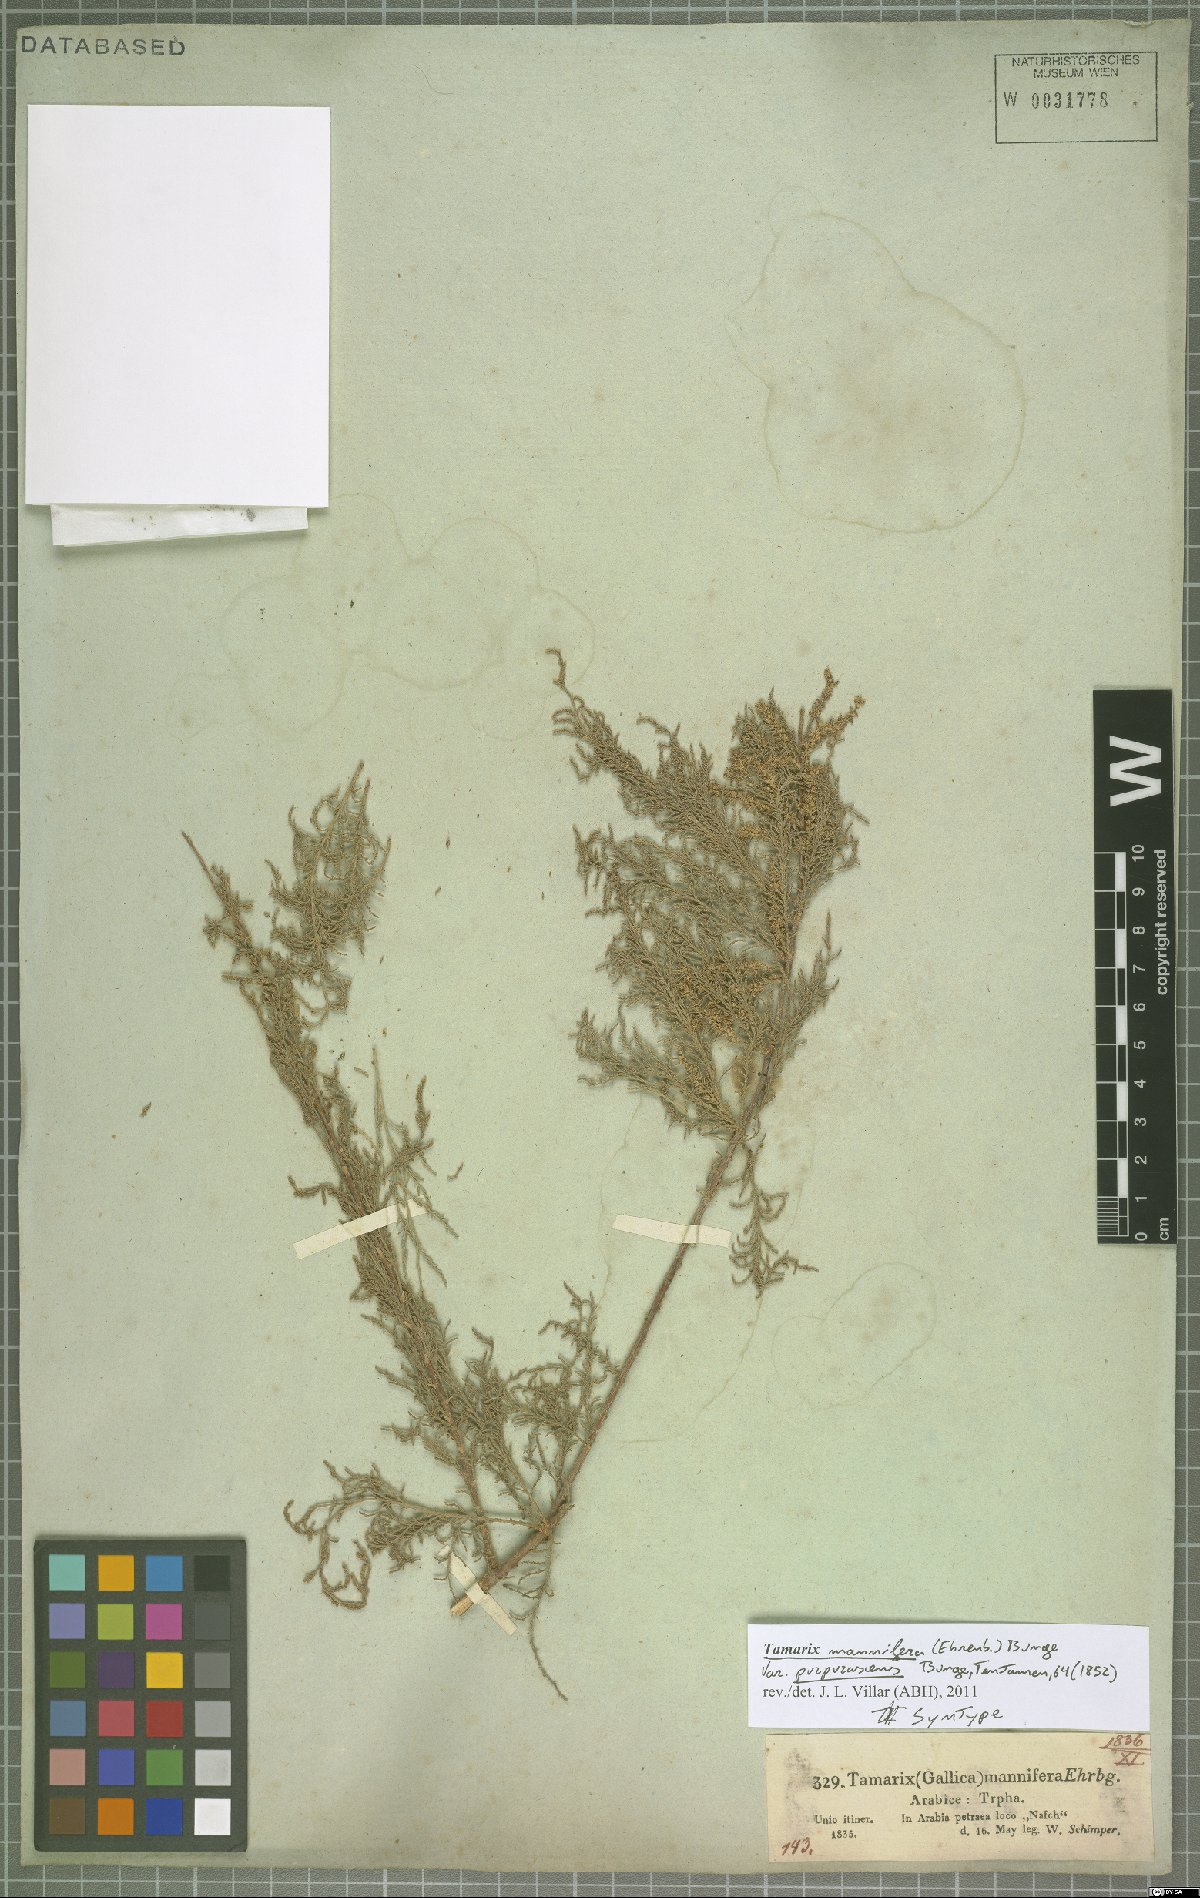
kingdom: Plantae
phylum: Tracheophyta
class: Magnoliopsida
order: Caryophyllales
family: Tamaricaceae
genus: Tamarix
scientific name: Tamarix senegalensis
